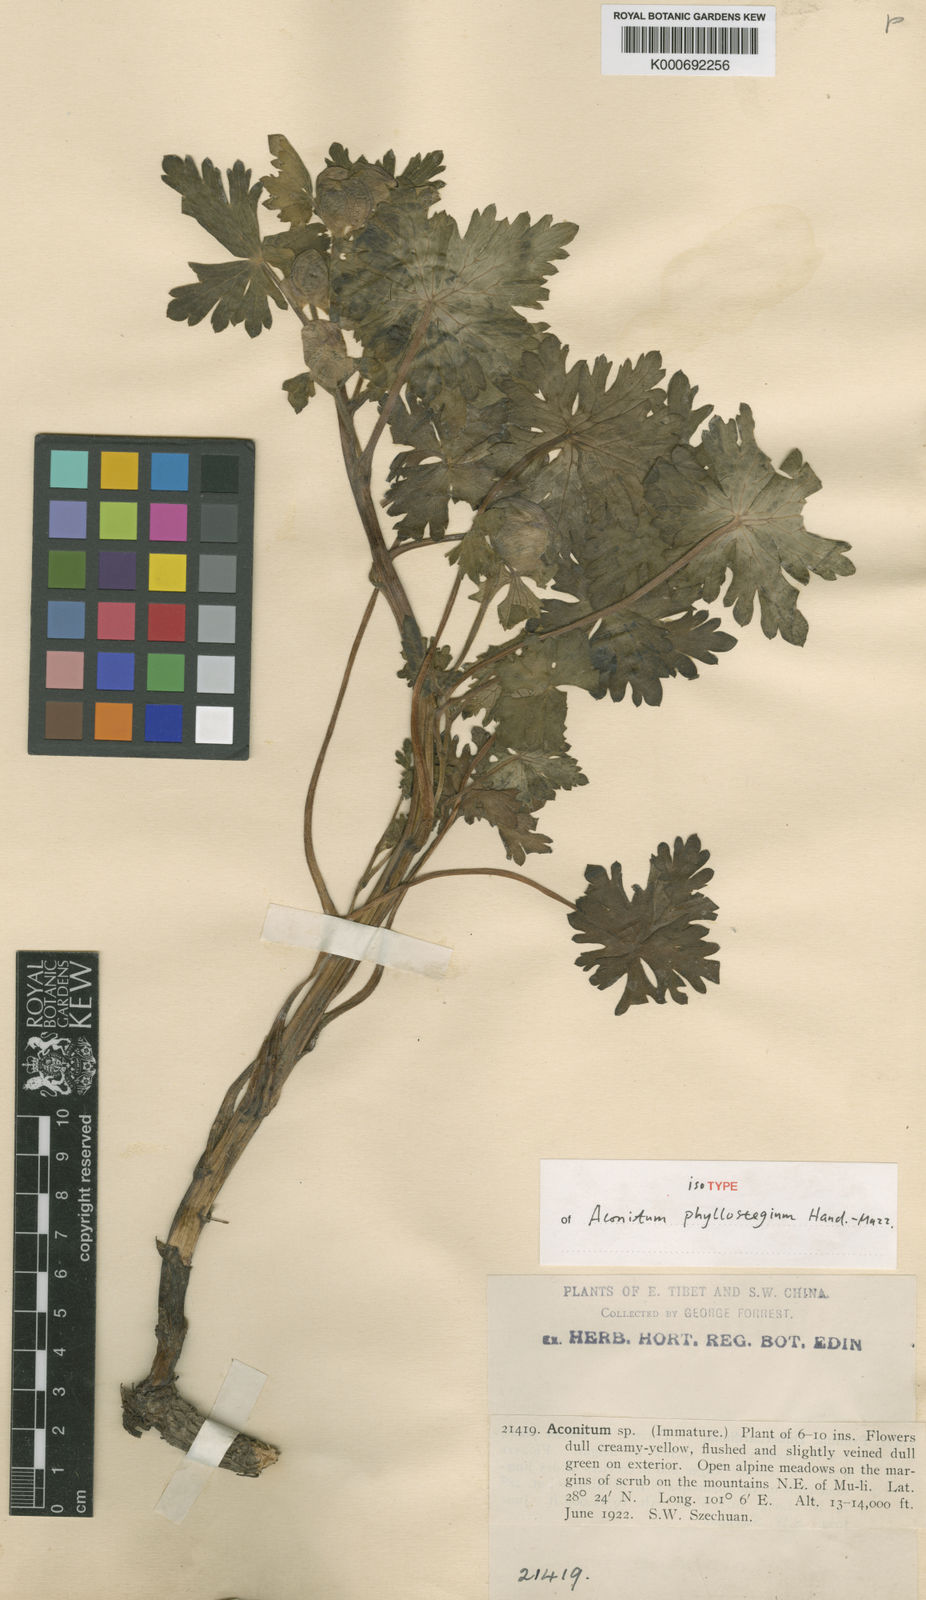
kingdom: Plantae
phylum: Tracheophyta
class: Magnoliopsida
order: Ranunculales
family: Ranunculaceae
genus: Aconitum
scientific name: Aconitum phyllostegium
